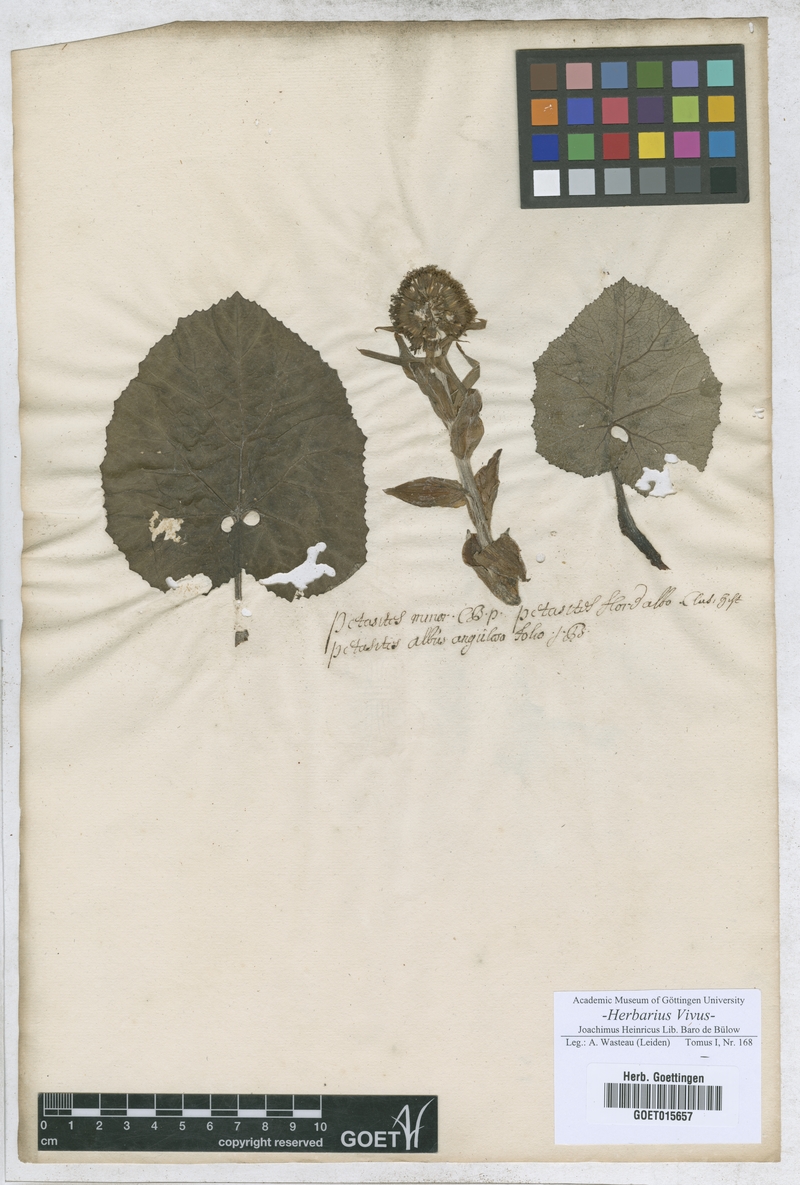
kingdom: Plantae
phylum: Tracheophyta
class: Magnoliopsida
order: Asterales
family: Asteraceae
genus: Petasites
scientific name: Petasites albus
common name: White butterbur
